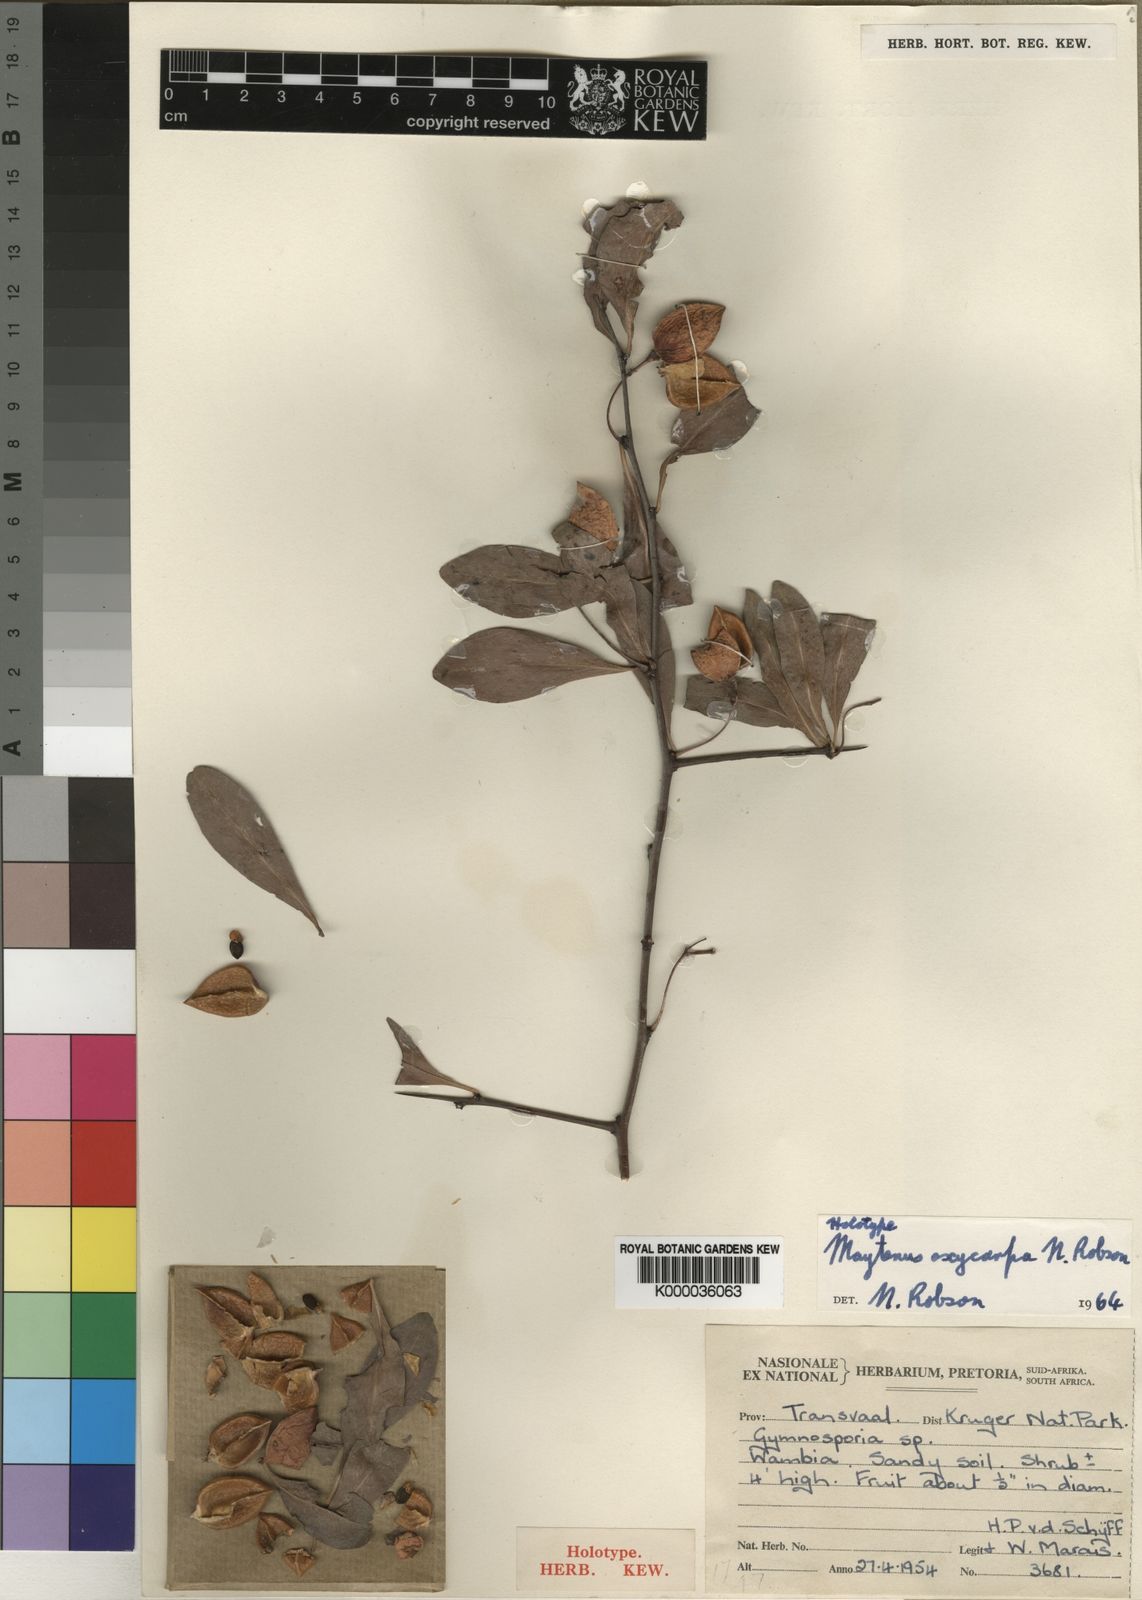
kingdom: Plantae
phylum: Tracheophyta
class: Magnoliopsida
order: Celastrales
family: Celastraceae
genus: Gymnosporia
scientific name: Gymnosporia oxycarpa
